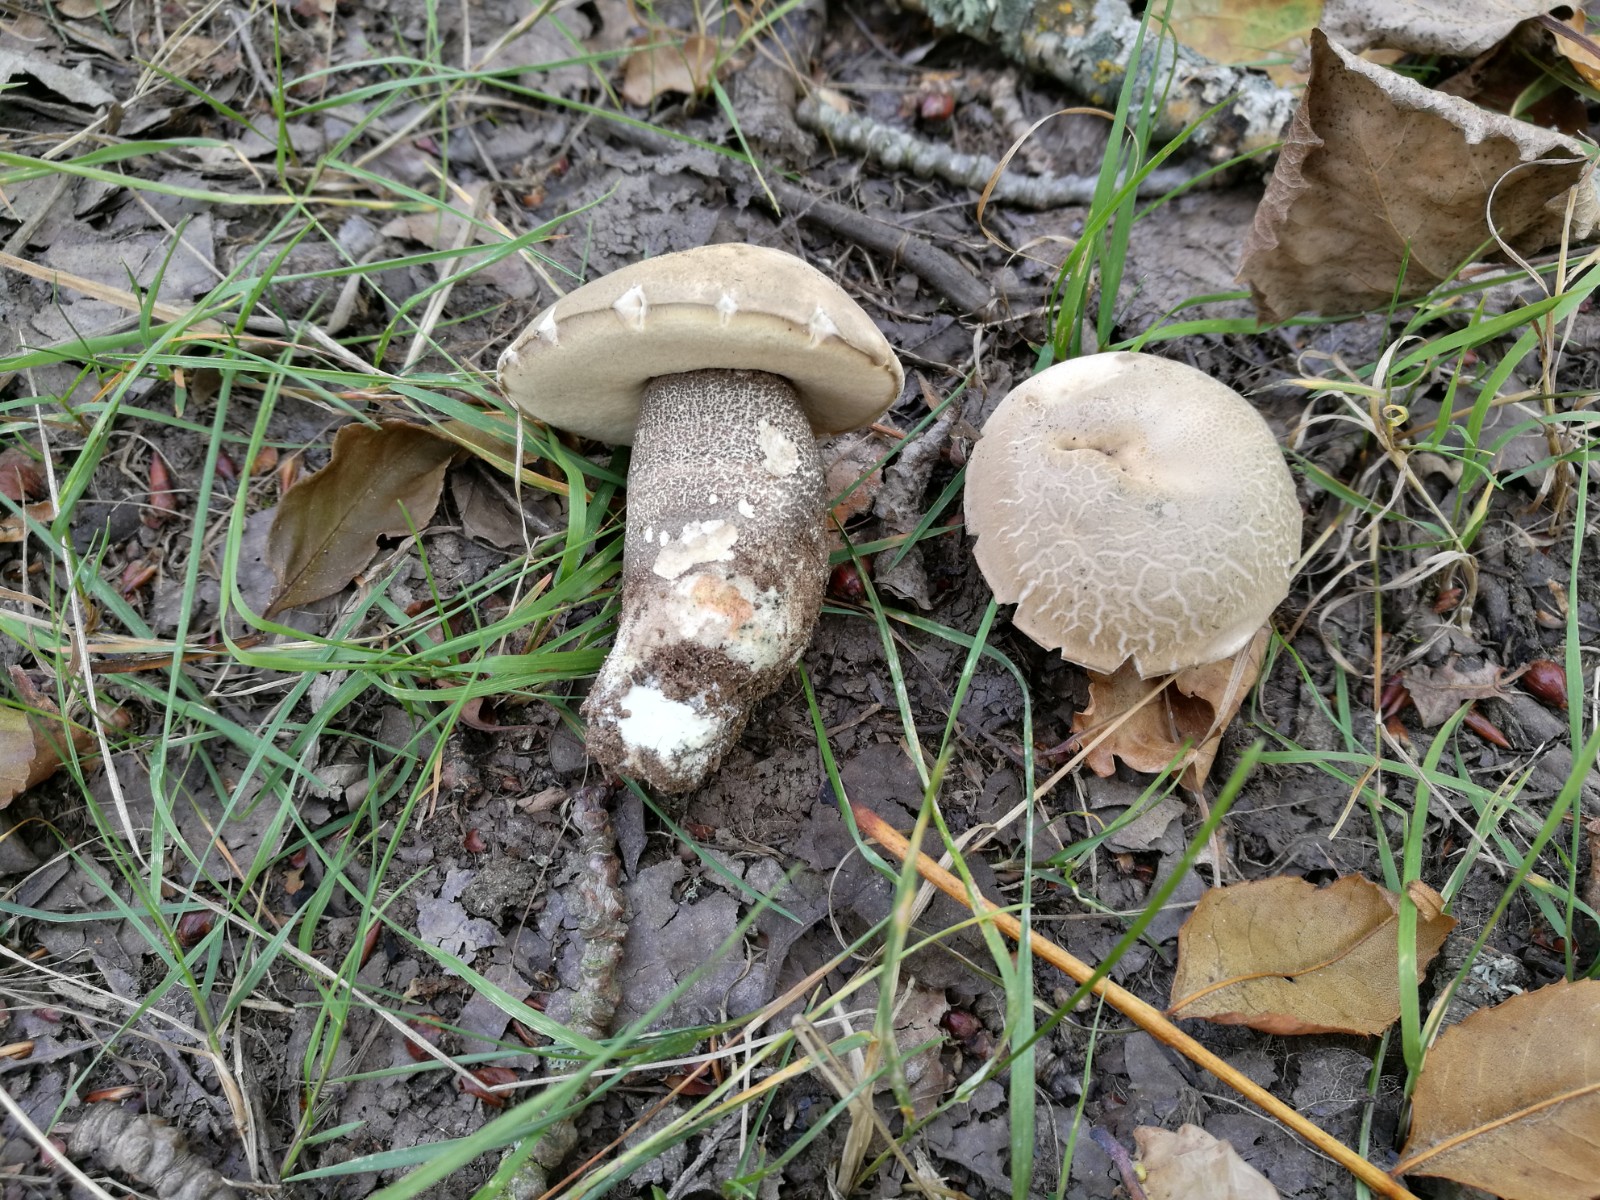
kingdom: Fungi
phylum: Basidiomycota
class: Agaricomycetes
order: Boletales
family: Boletaceae
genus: Leccinum
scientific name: Leccinum duriusculum
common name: poppel-skælrørhat
